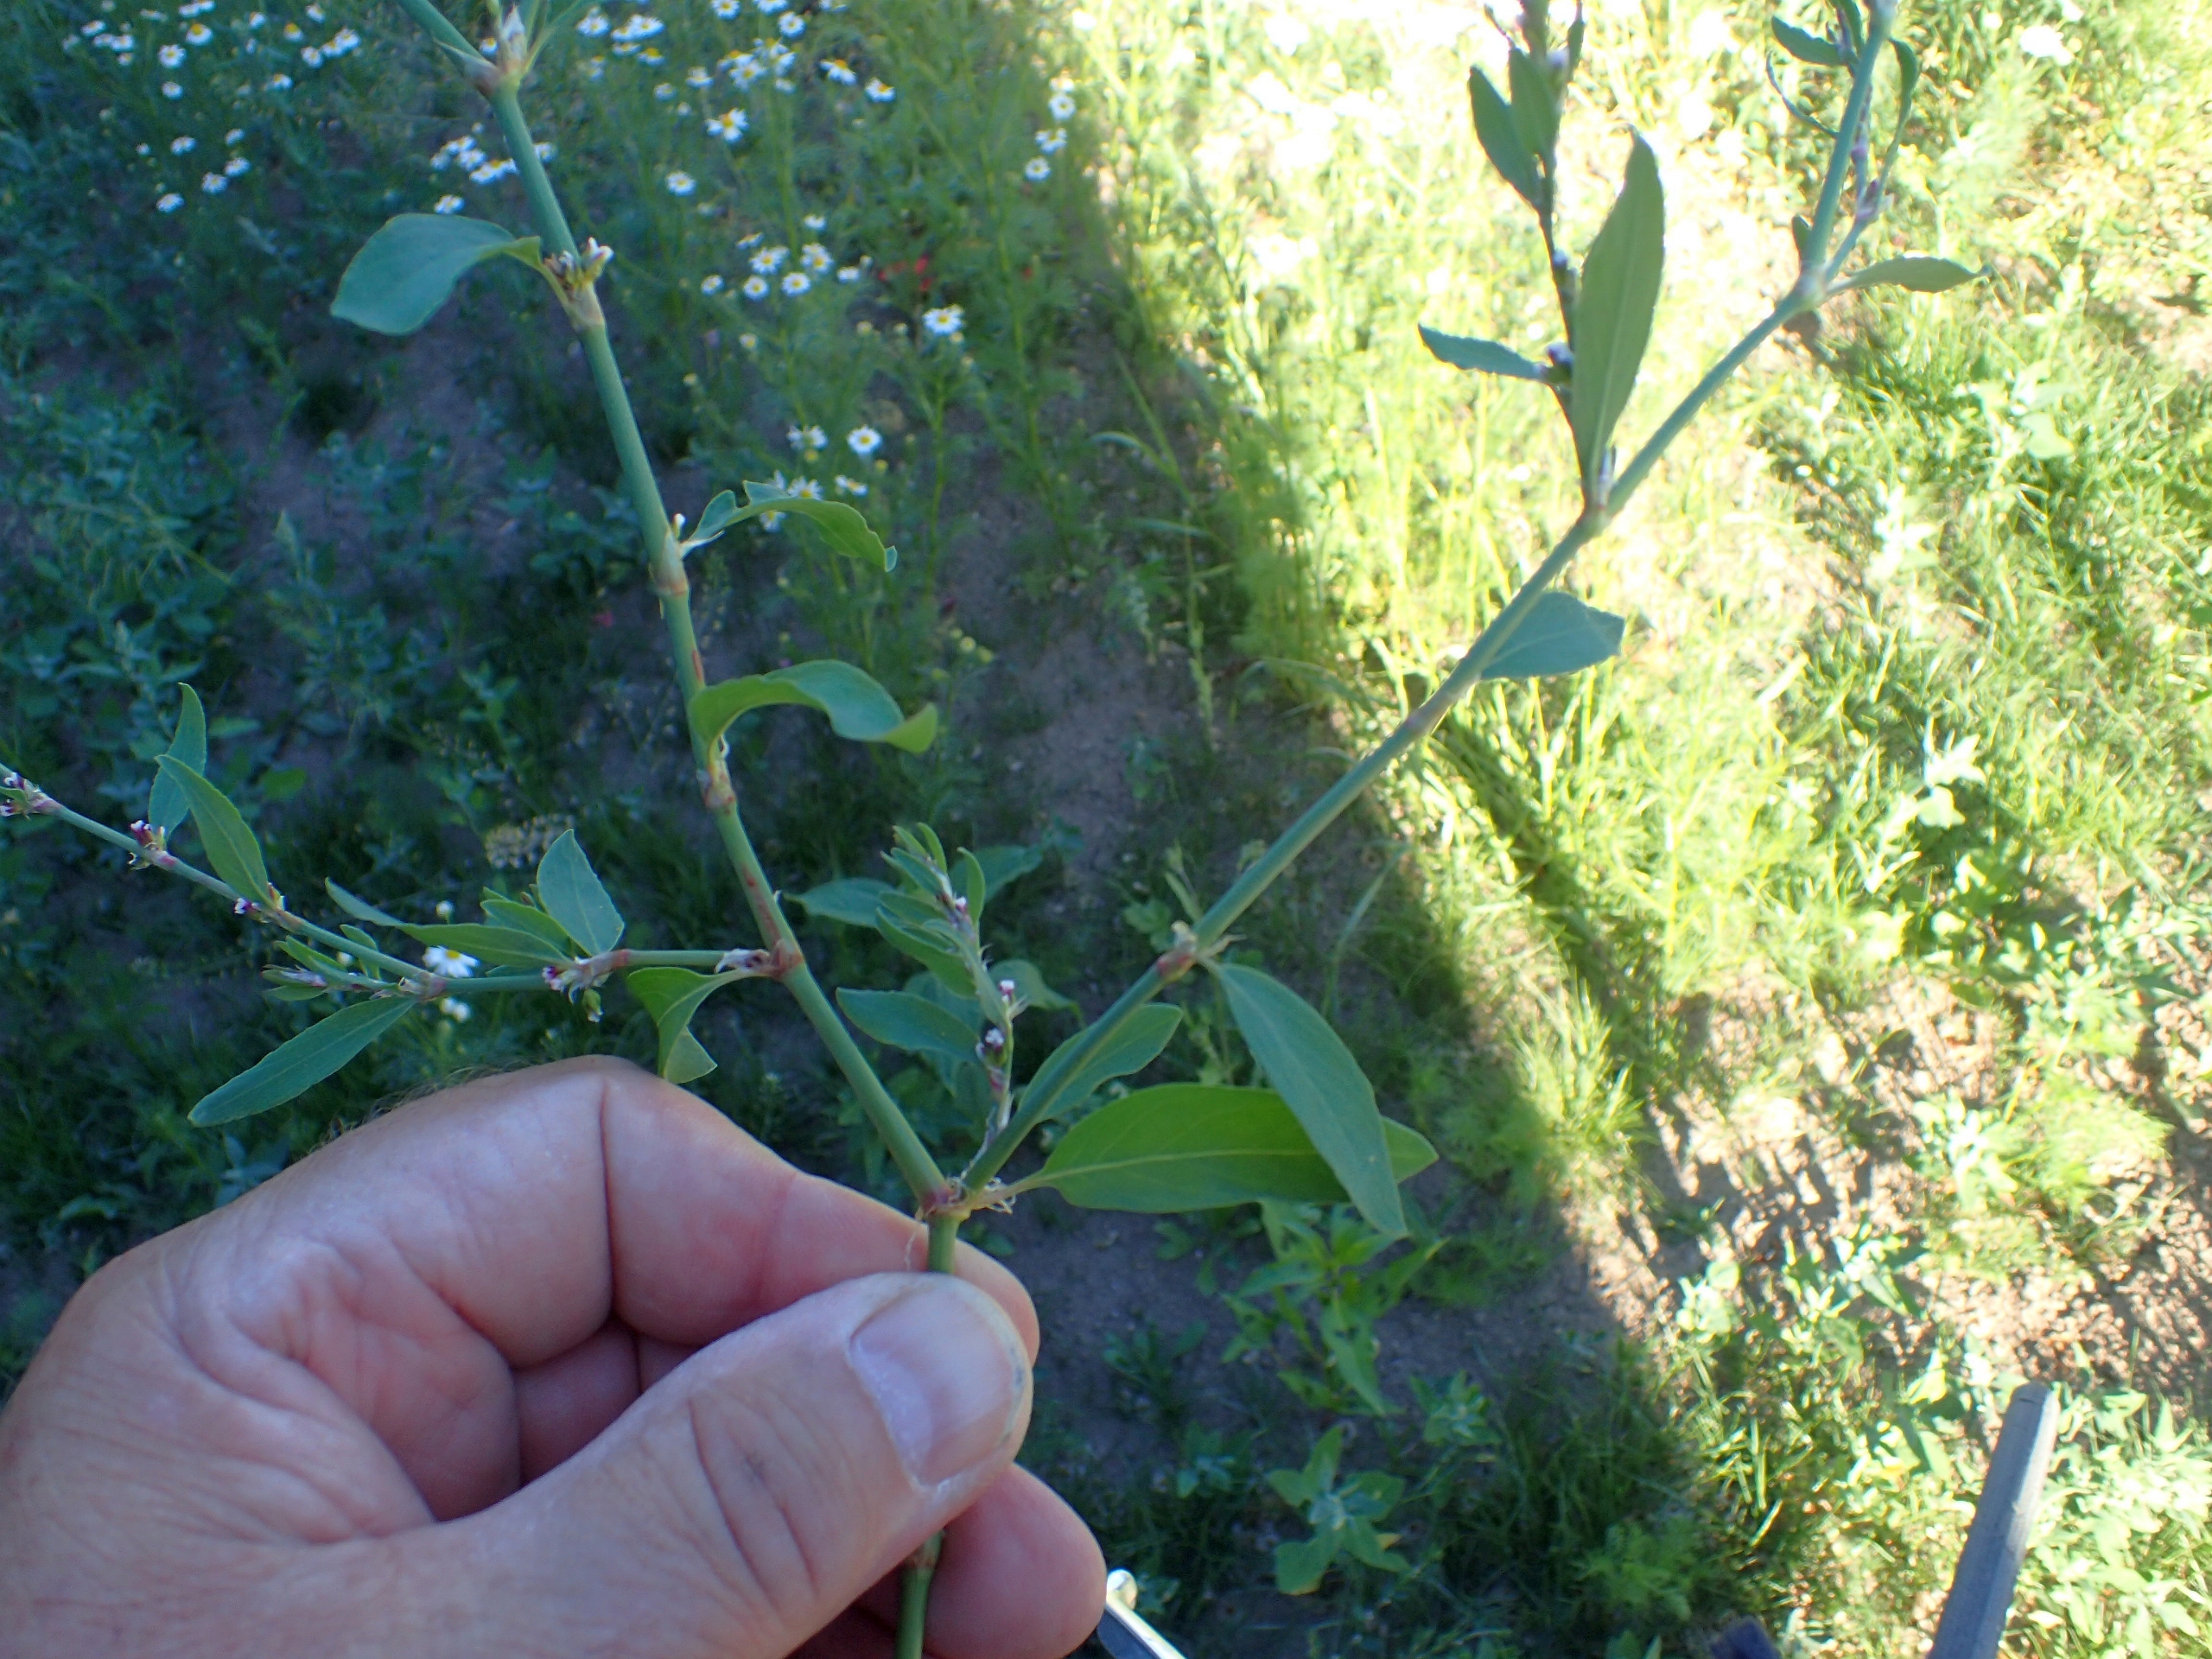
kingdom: Plantae
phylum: Tracheophyta
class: Magnoliopsida
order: Caryophyllales
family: Polygonaceae
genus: Polygonum
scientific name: Polygonum aviculare
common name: Vej-pileurt (underart)
